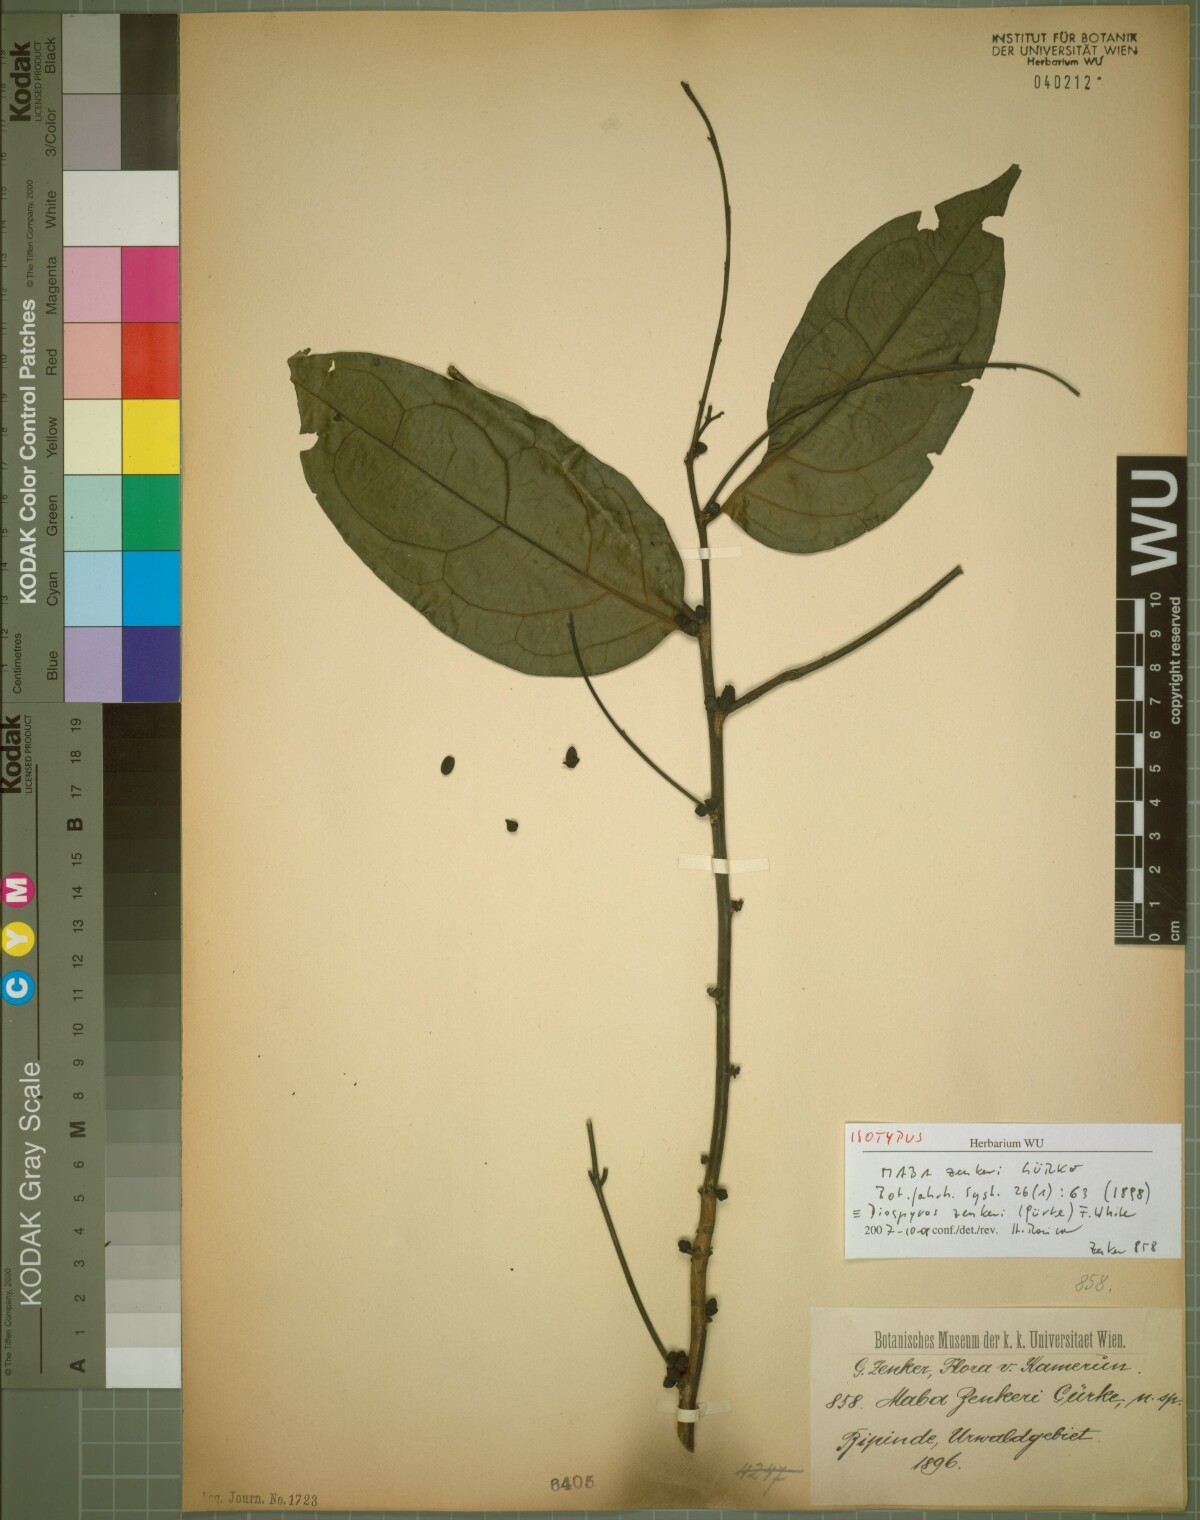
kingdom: Plantae
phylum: Tracheophyta
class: Magnoliopsida
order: Ericales
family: Ebenaceae
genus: Diospyros
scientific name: Diospyros zenkeri
